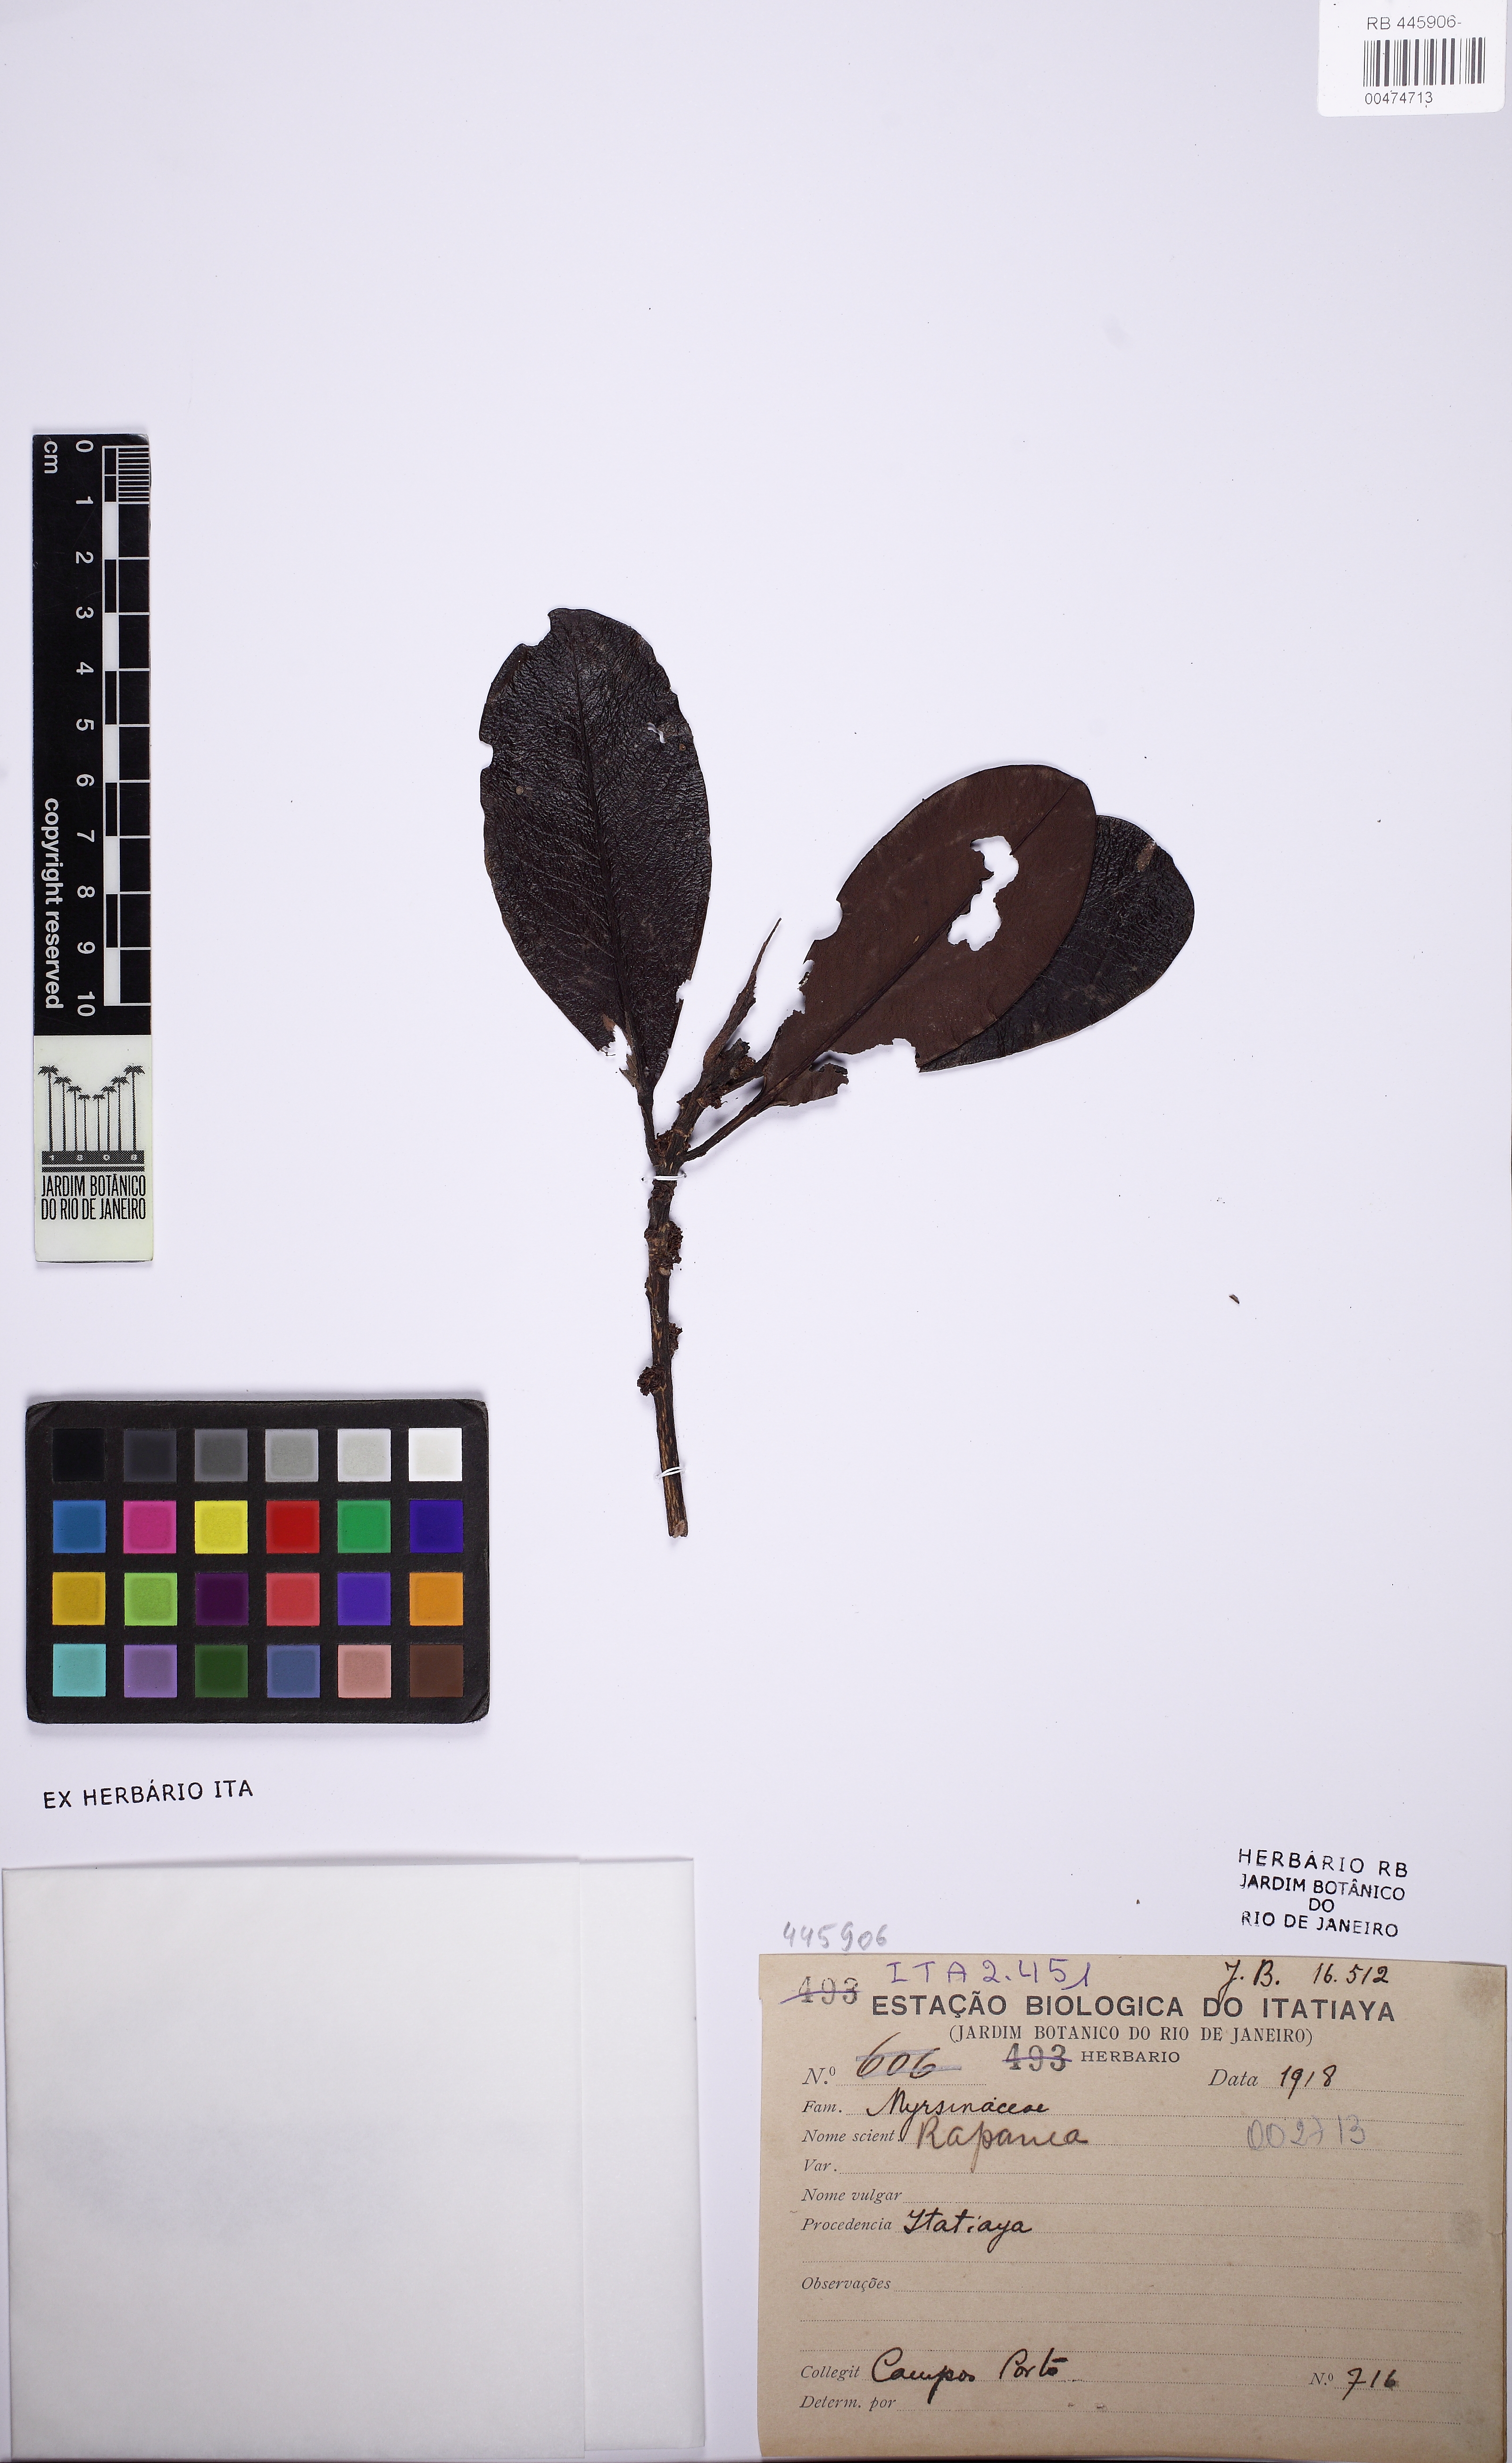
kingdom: Plantae
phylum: Tracheophyta
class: Magnoliopsida
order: Ericales
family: Primulaceae
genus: Myrsine
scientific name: Myrsine
